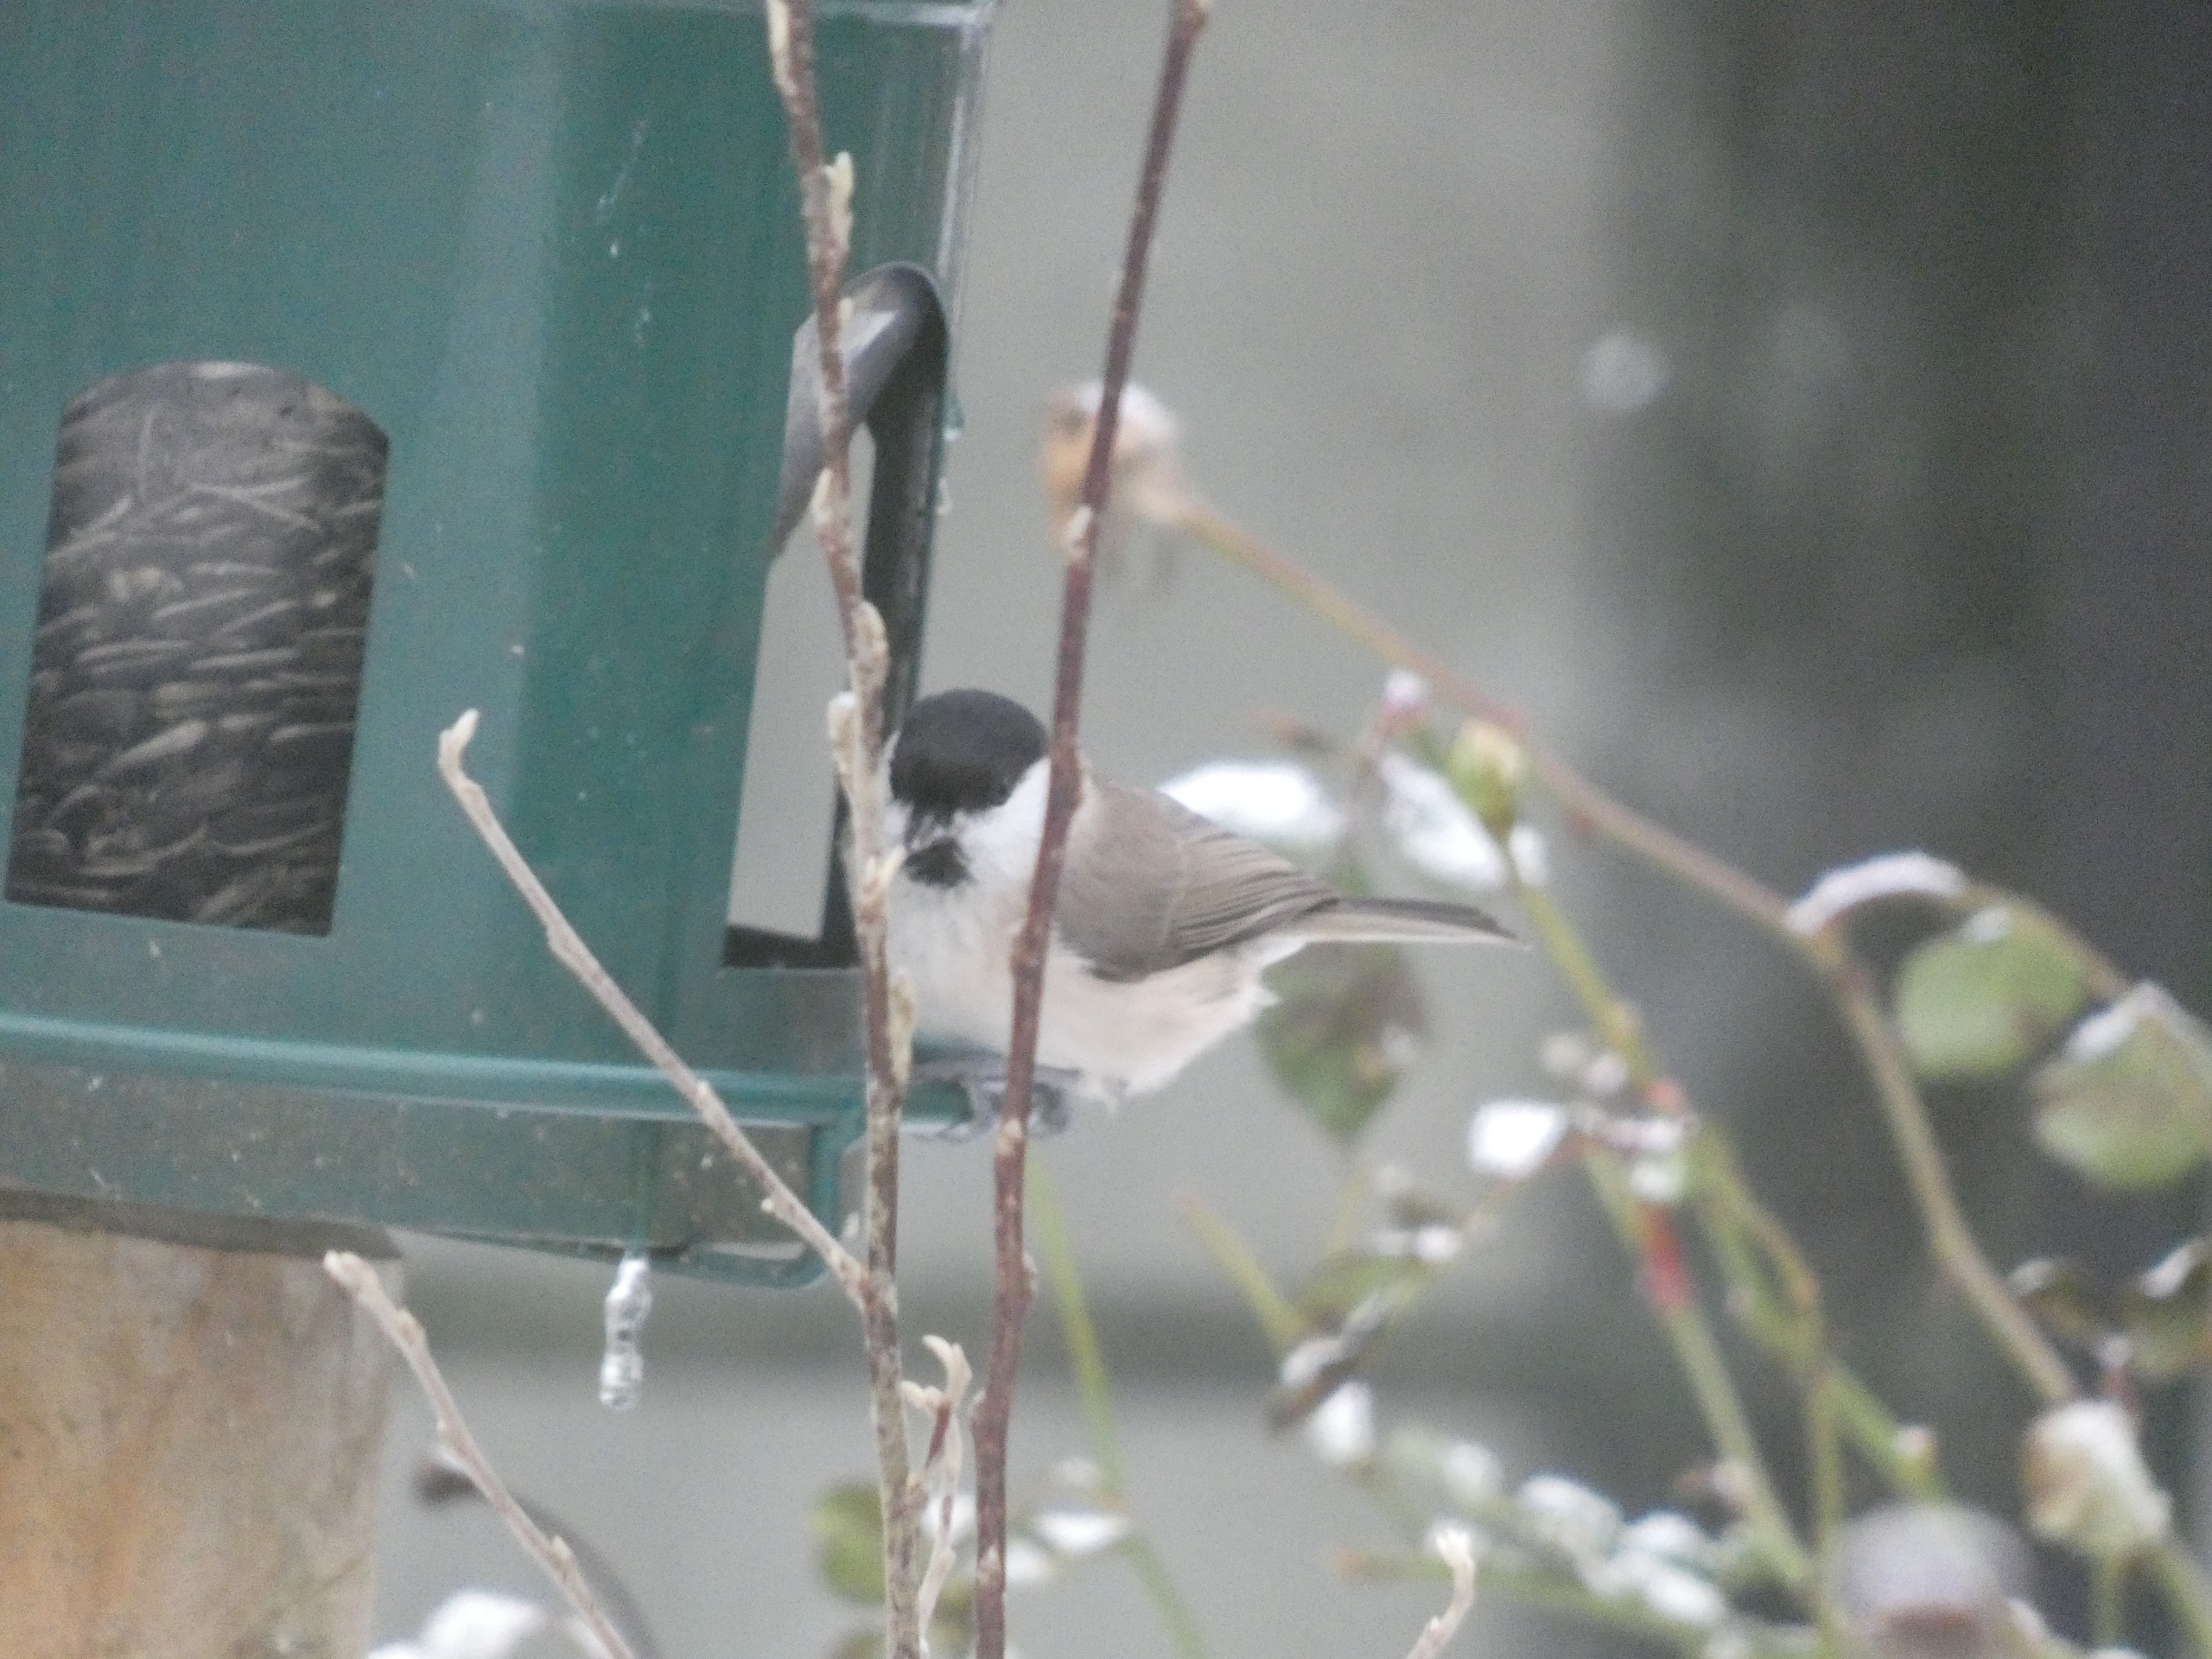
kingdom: Animalia
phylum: Chordata
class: Aves
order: Passeriformes
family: Paridae
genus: Poecile
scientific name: Poecile palustris
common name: Sumpmejse
